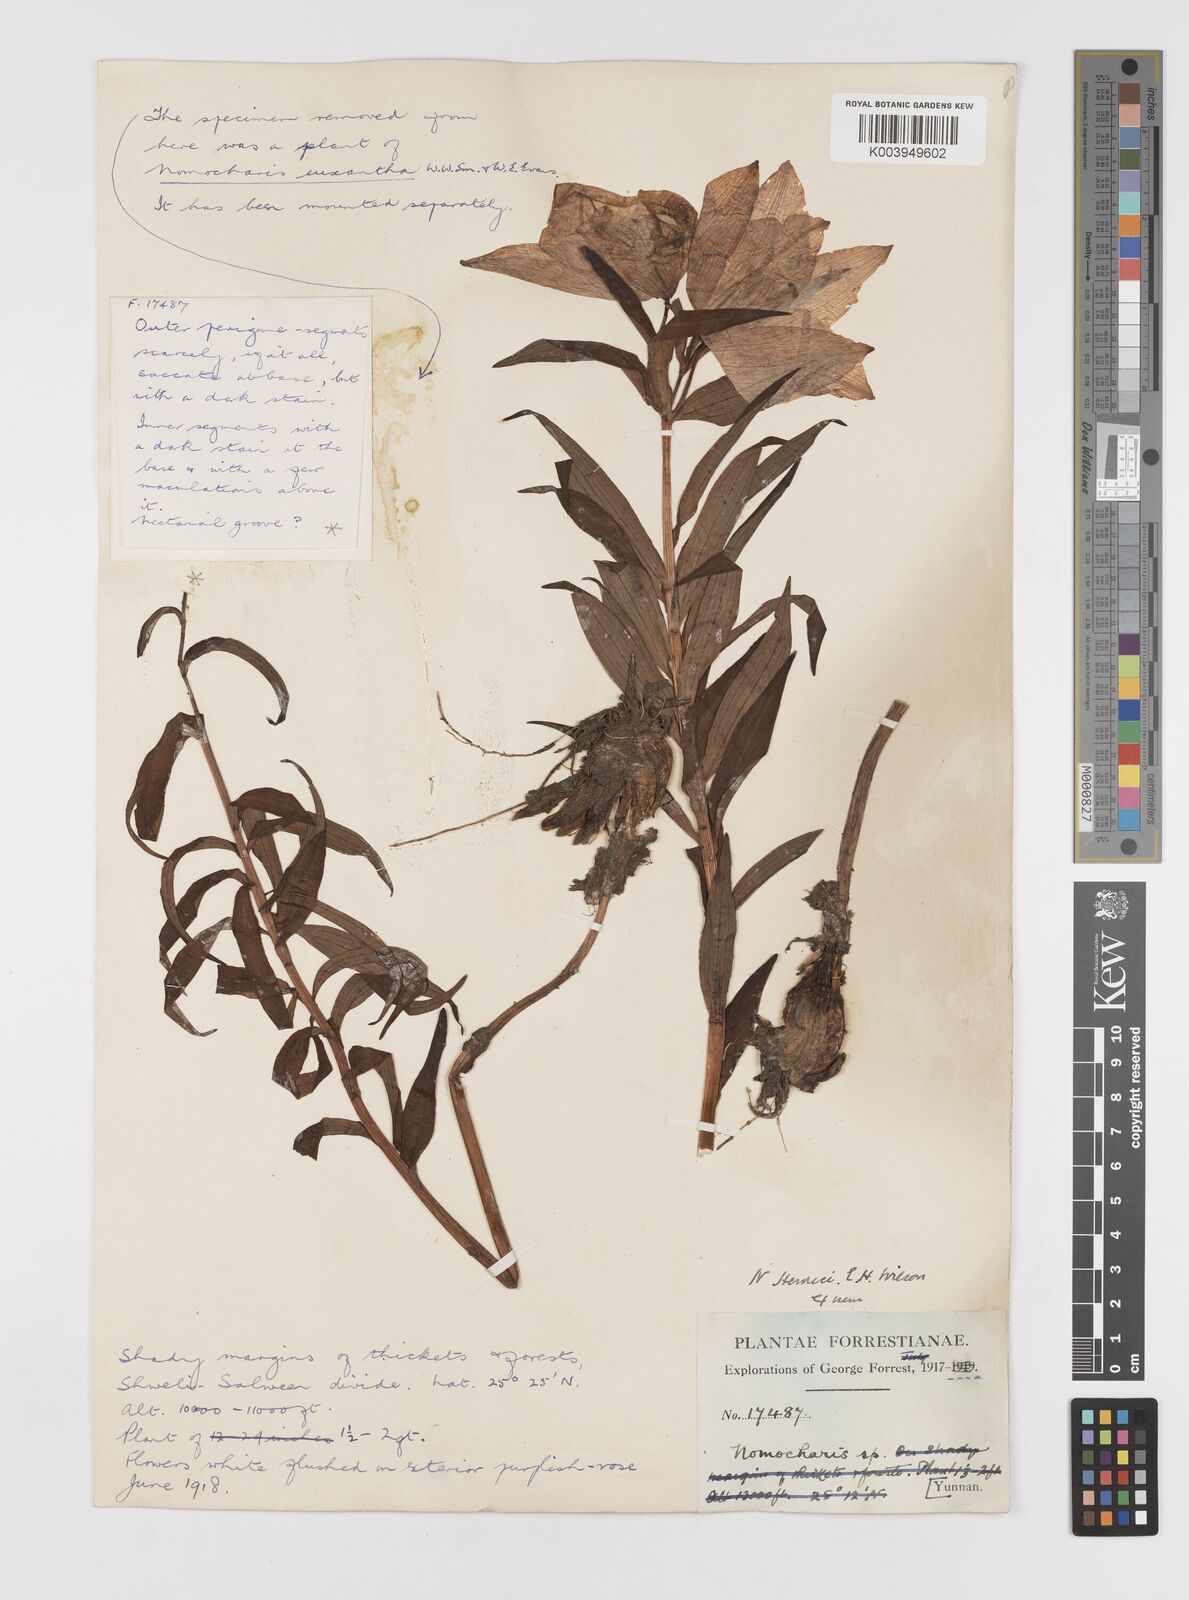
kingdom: Plantae
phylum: Tracheophyta
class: Liliopsida
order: Liliales
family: Liliaceae
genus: Lilium
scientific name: Lilium henrici
